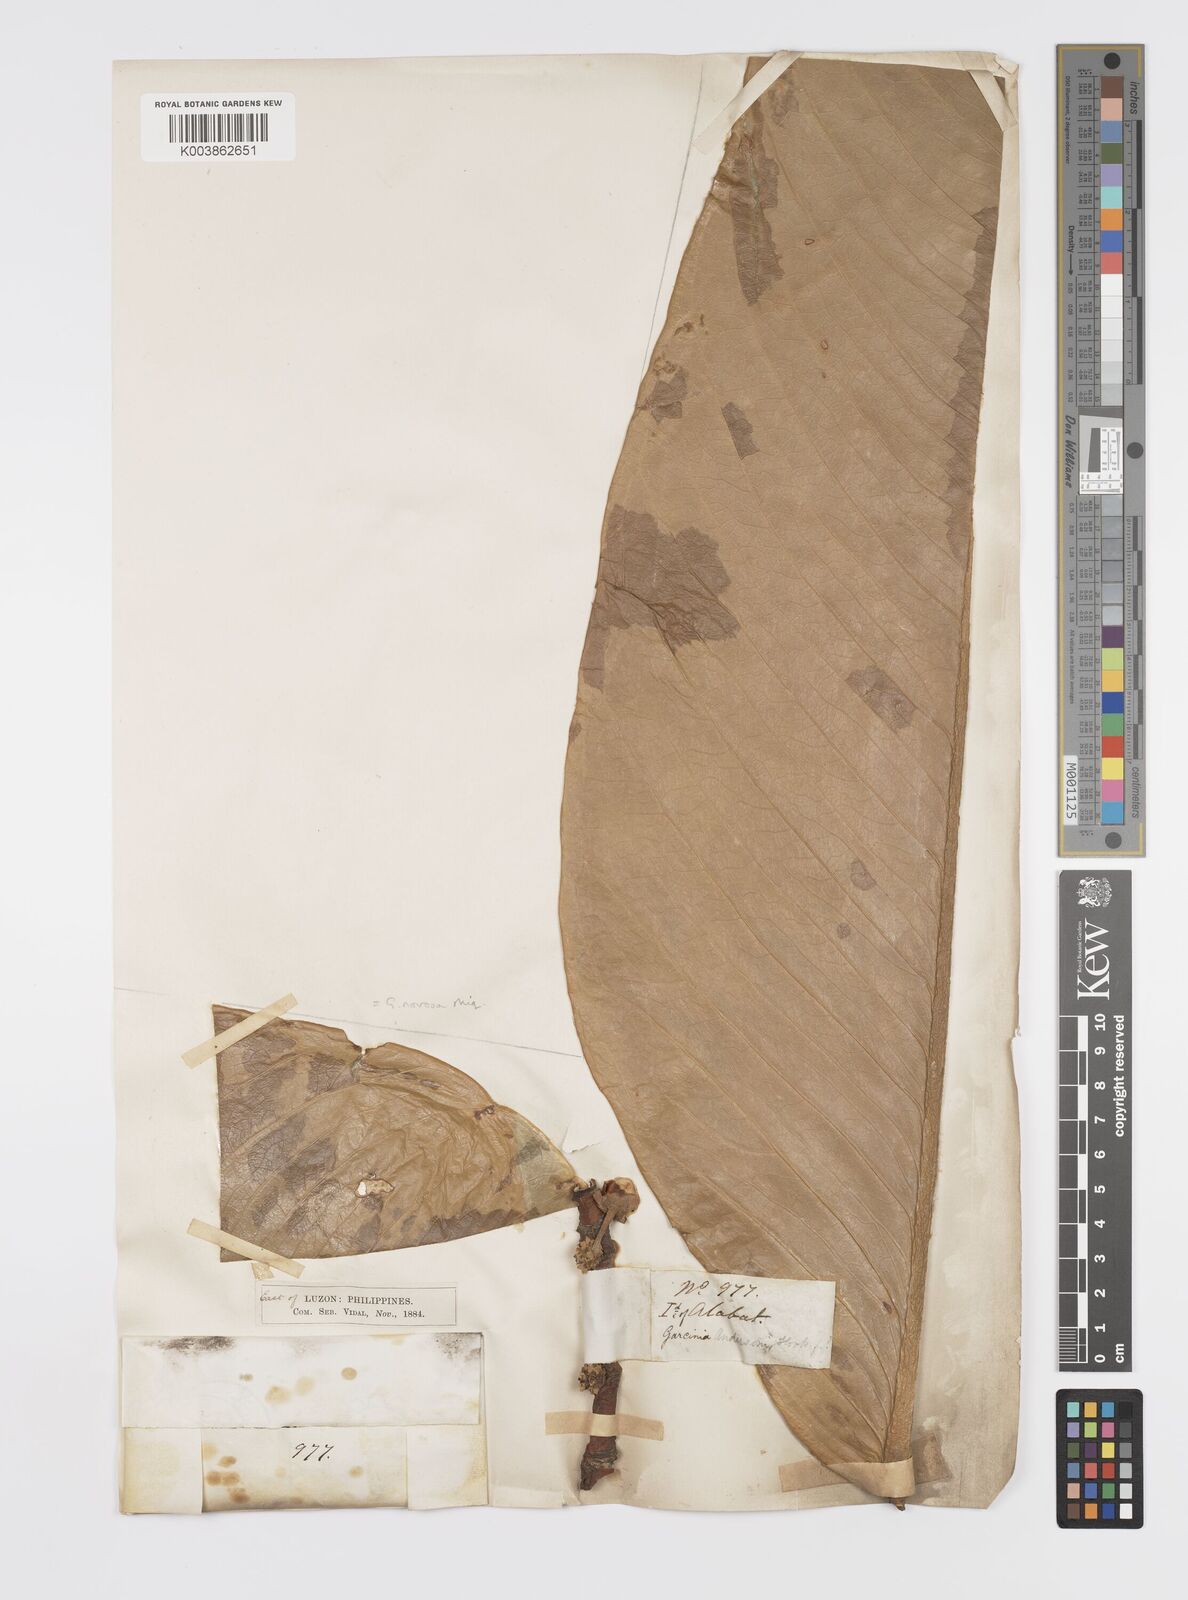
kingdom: Plantae
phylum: Tracheophyta
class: Magnoliopsida
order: Malpighiales
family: Clusiaceae
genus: Garcinia
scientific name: Garcinia nervosa
